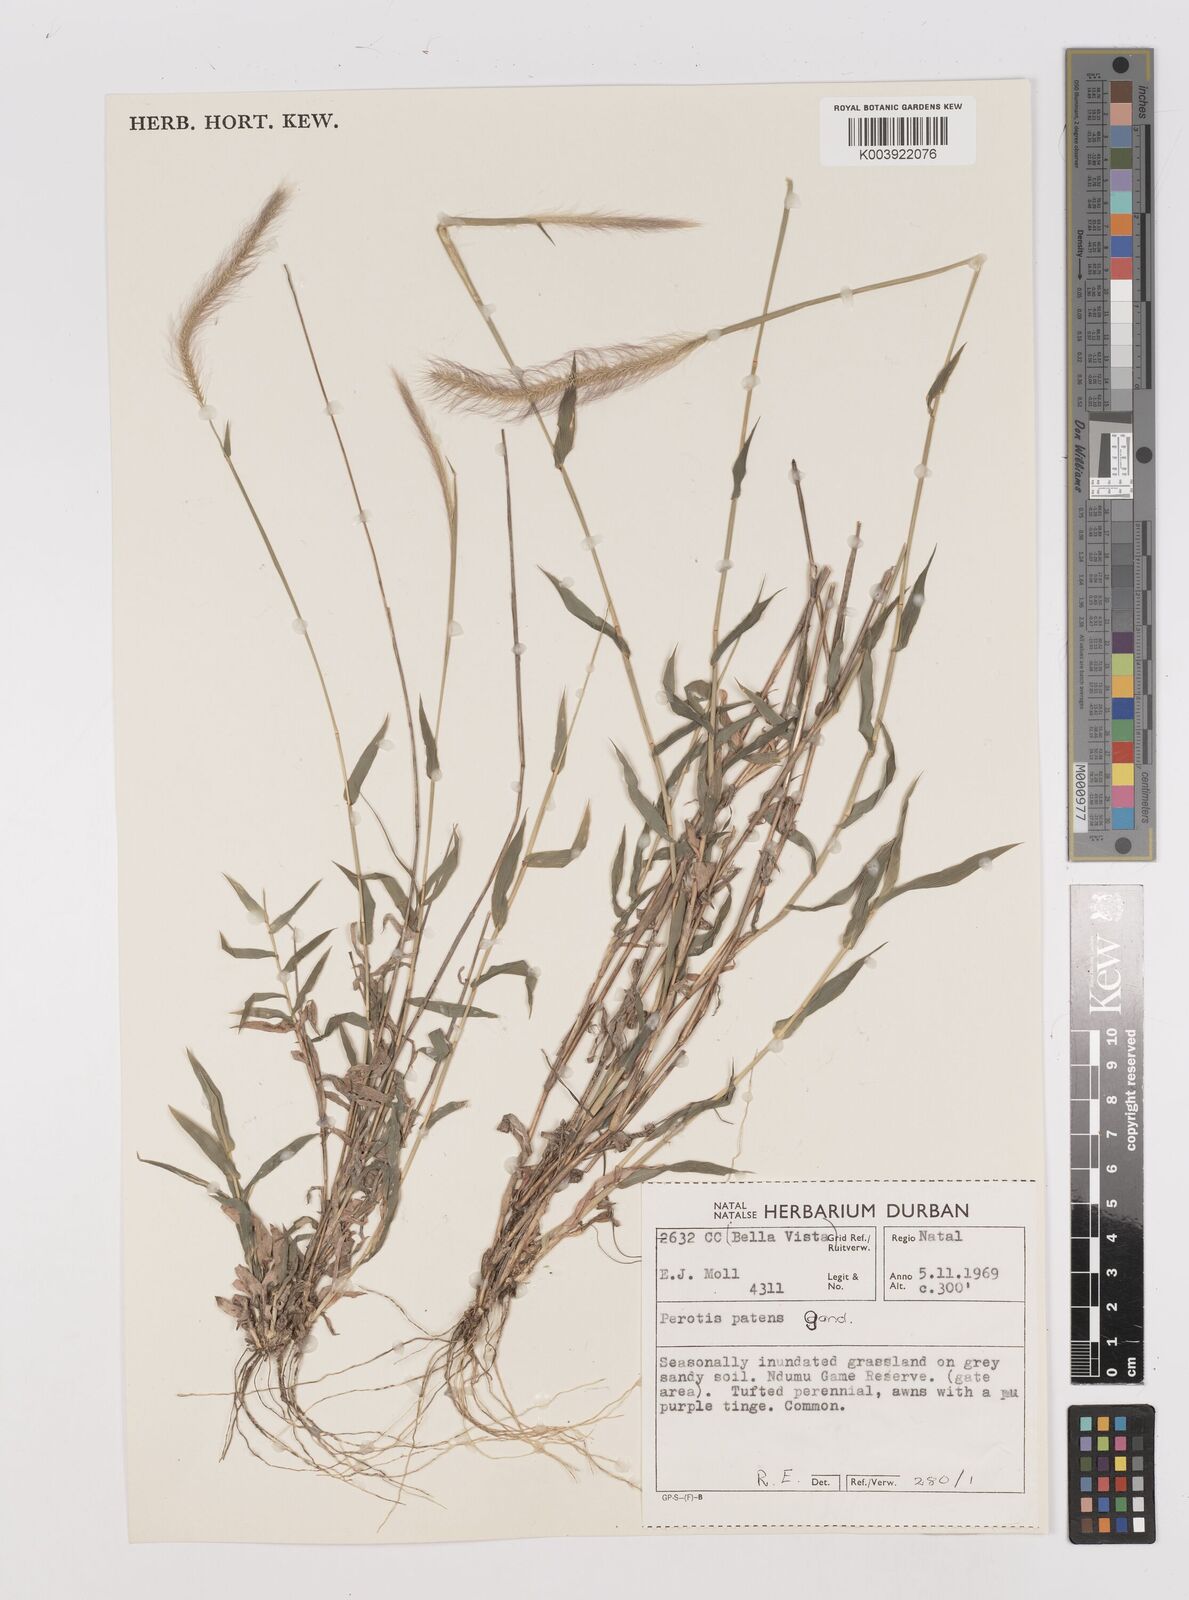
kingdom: Plantae
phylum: Tracheophyta
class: Liliopsida
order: Poales
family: Poaceae
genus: Perotis
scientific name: Perotis patens
